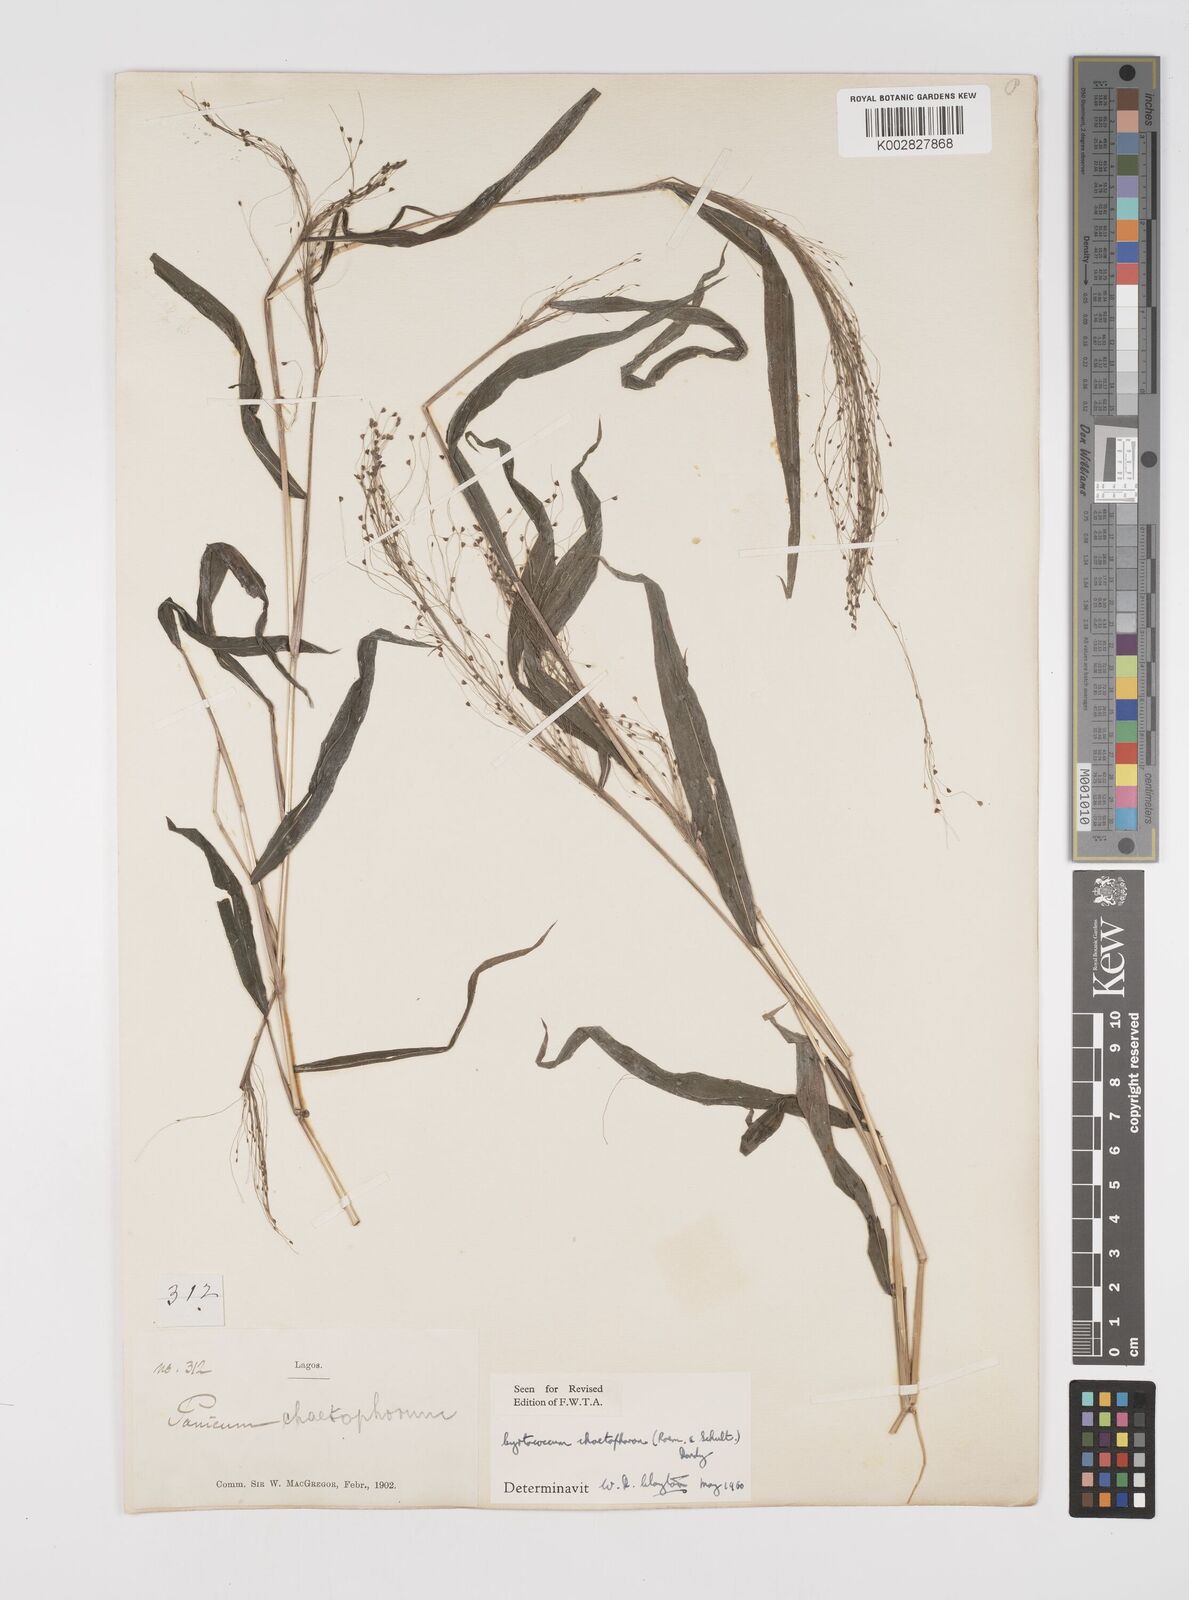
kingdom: Plantae
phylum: Tracheophyta
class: Liliopsida
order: Poales
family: Poaceae
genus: Cyrtococcum
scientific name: Cyrtococcum chaetophoron
